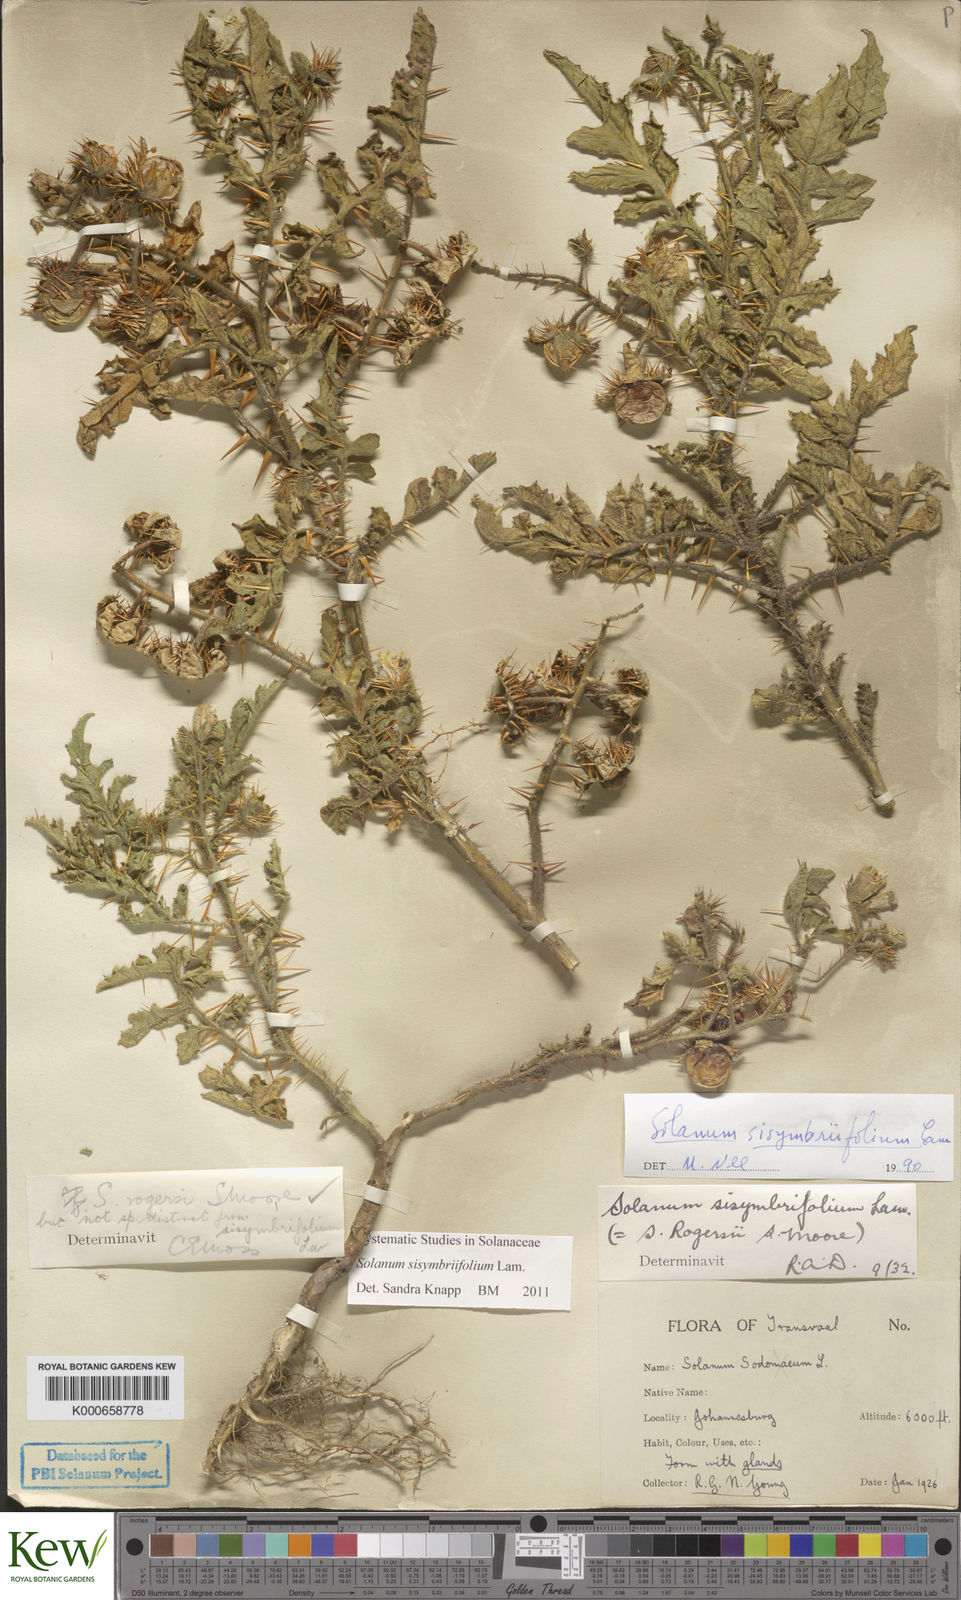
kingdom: Plantae
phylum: Tracheophyta
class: Magnoliopsida
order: Solanales
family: Solanaceae
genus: Solanum
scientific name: Solanum sisymbriifolium
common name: Red buffalo-bur
